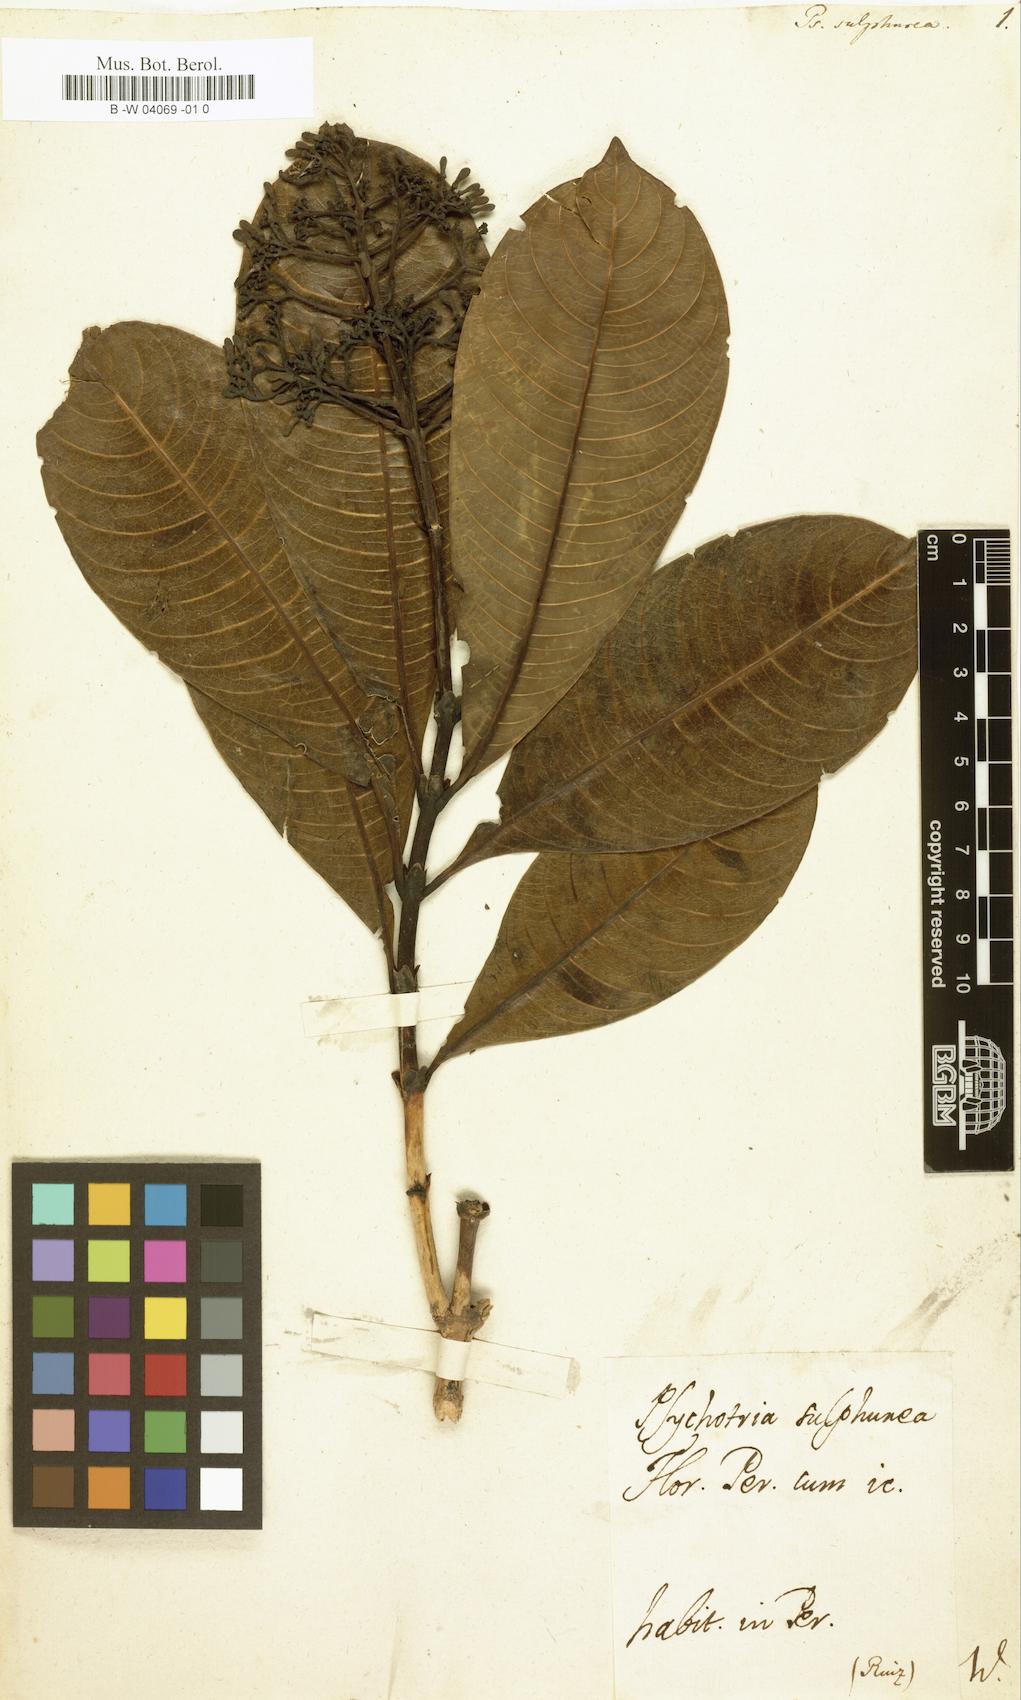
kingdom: Plantae
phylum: Tracheophyta
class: Magnoliopsida
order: Gentianales
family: Rubiaceae
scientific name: Rubiaceae
